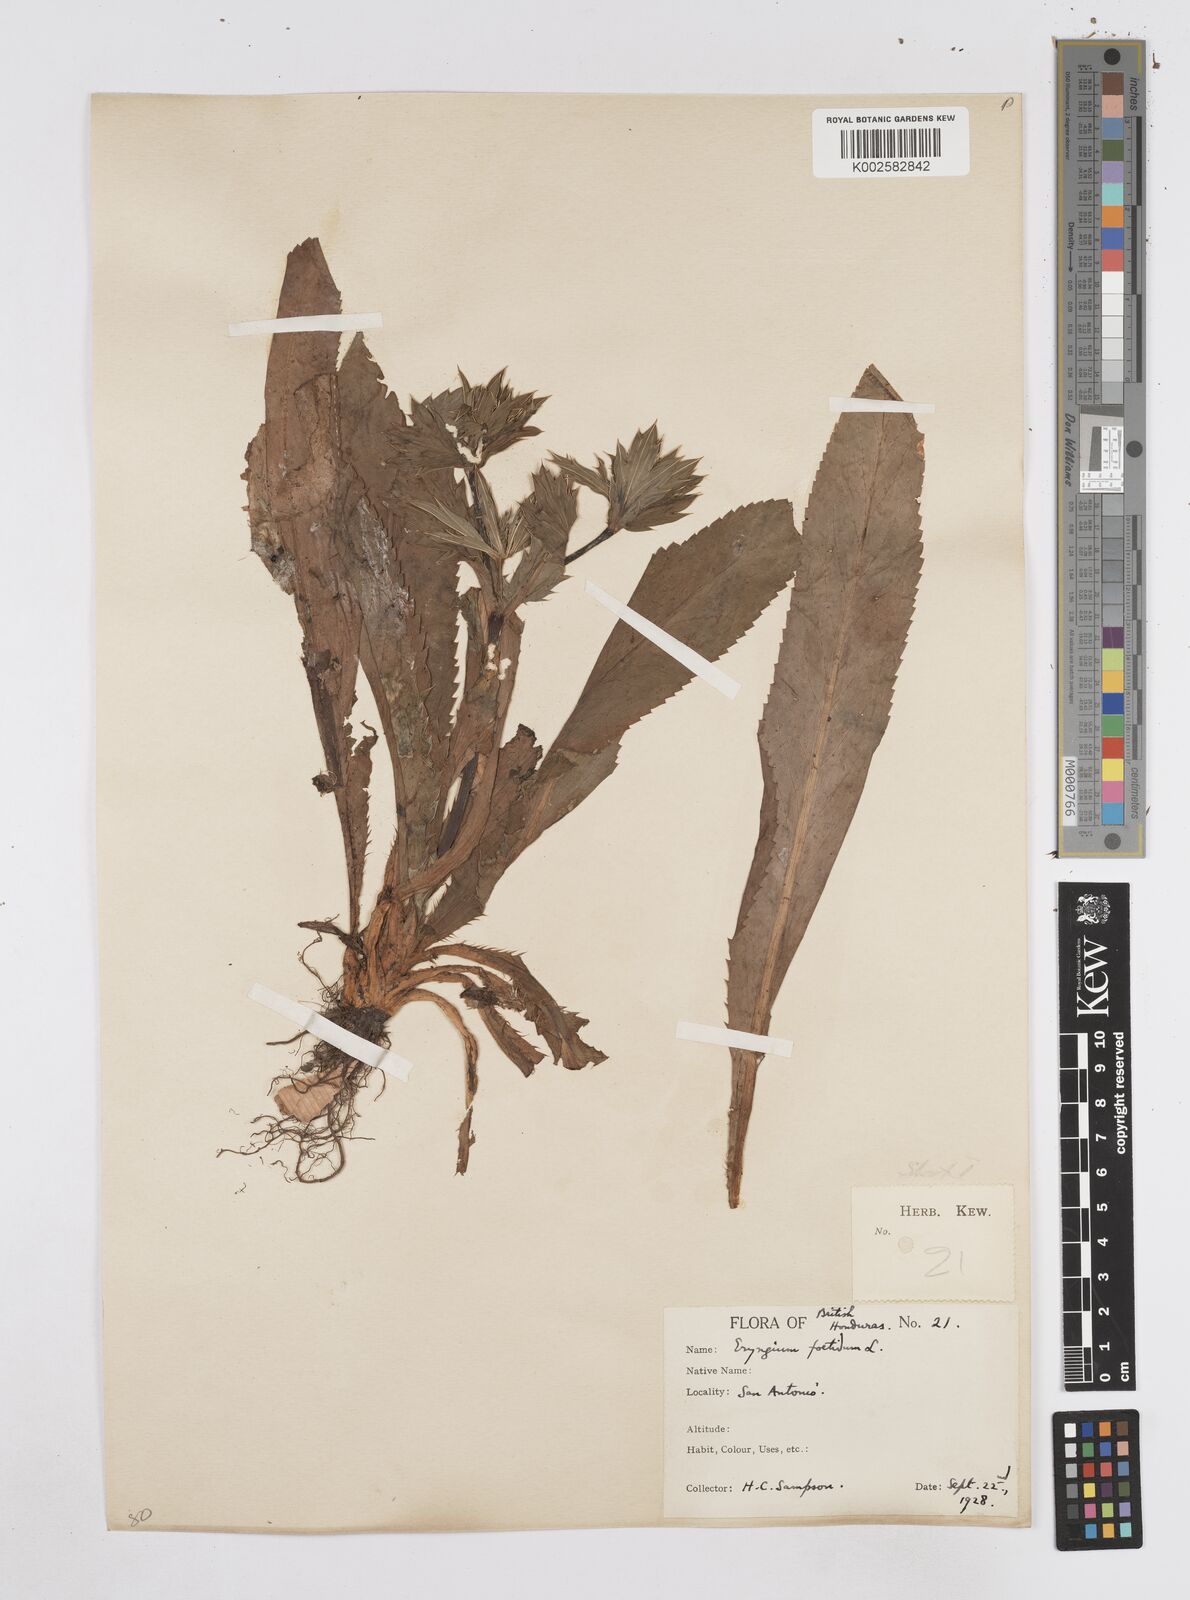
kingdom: Plantae
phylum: Tracheophyta
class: Magnoliopsida
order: Apiales
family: Apiaceae
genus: Eryngium
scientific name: Eryngium foetidum
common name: Fitweed
